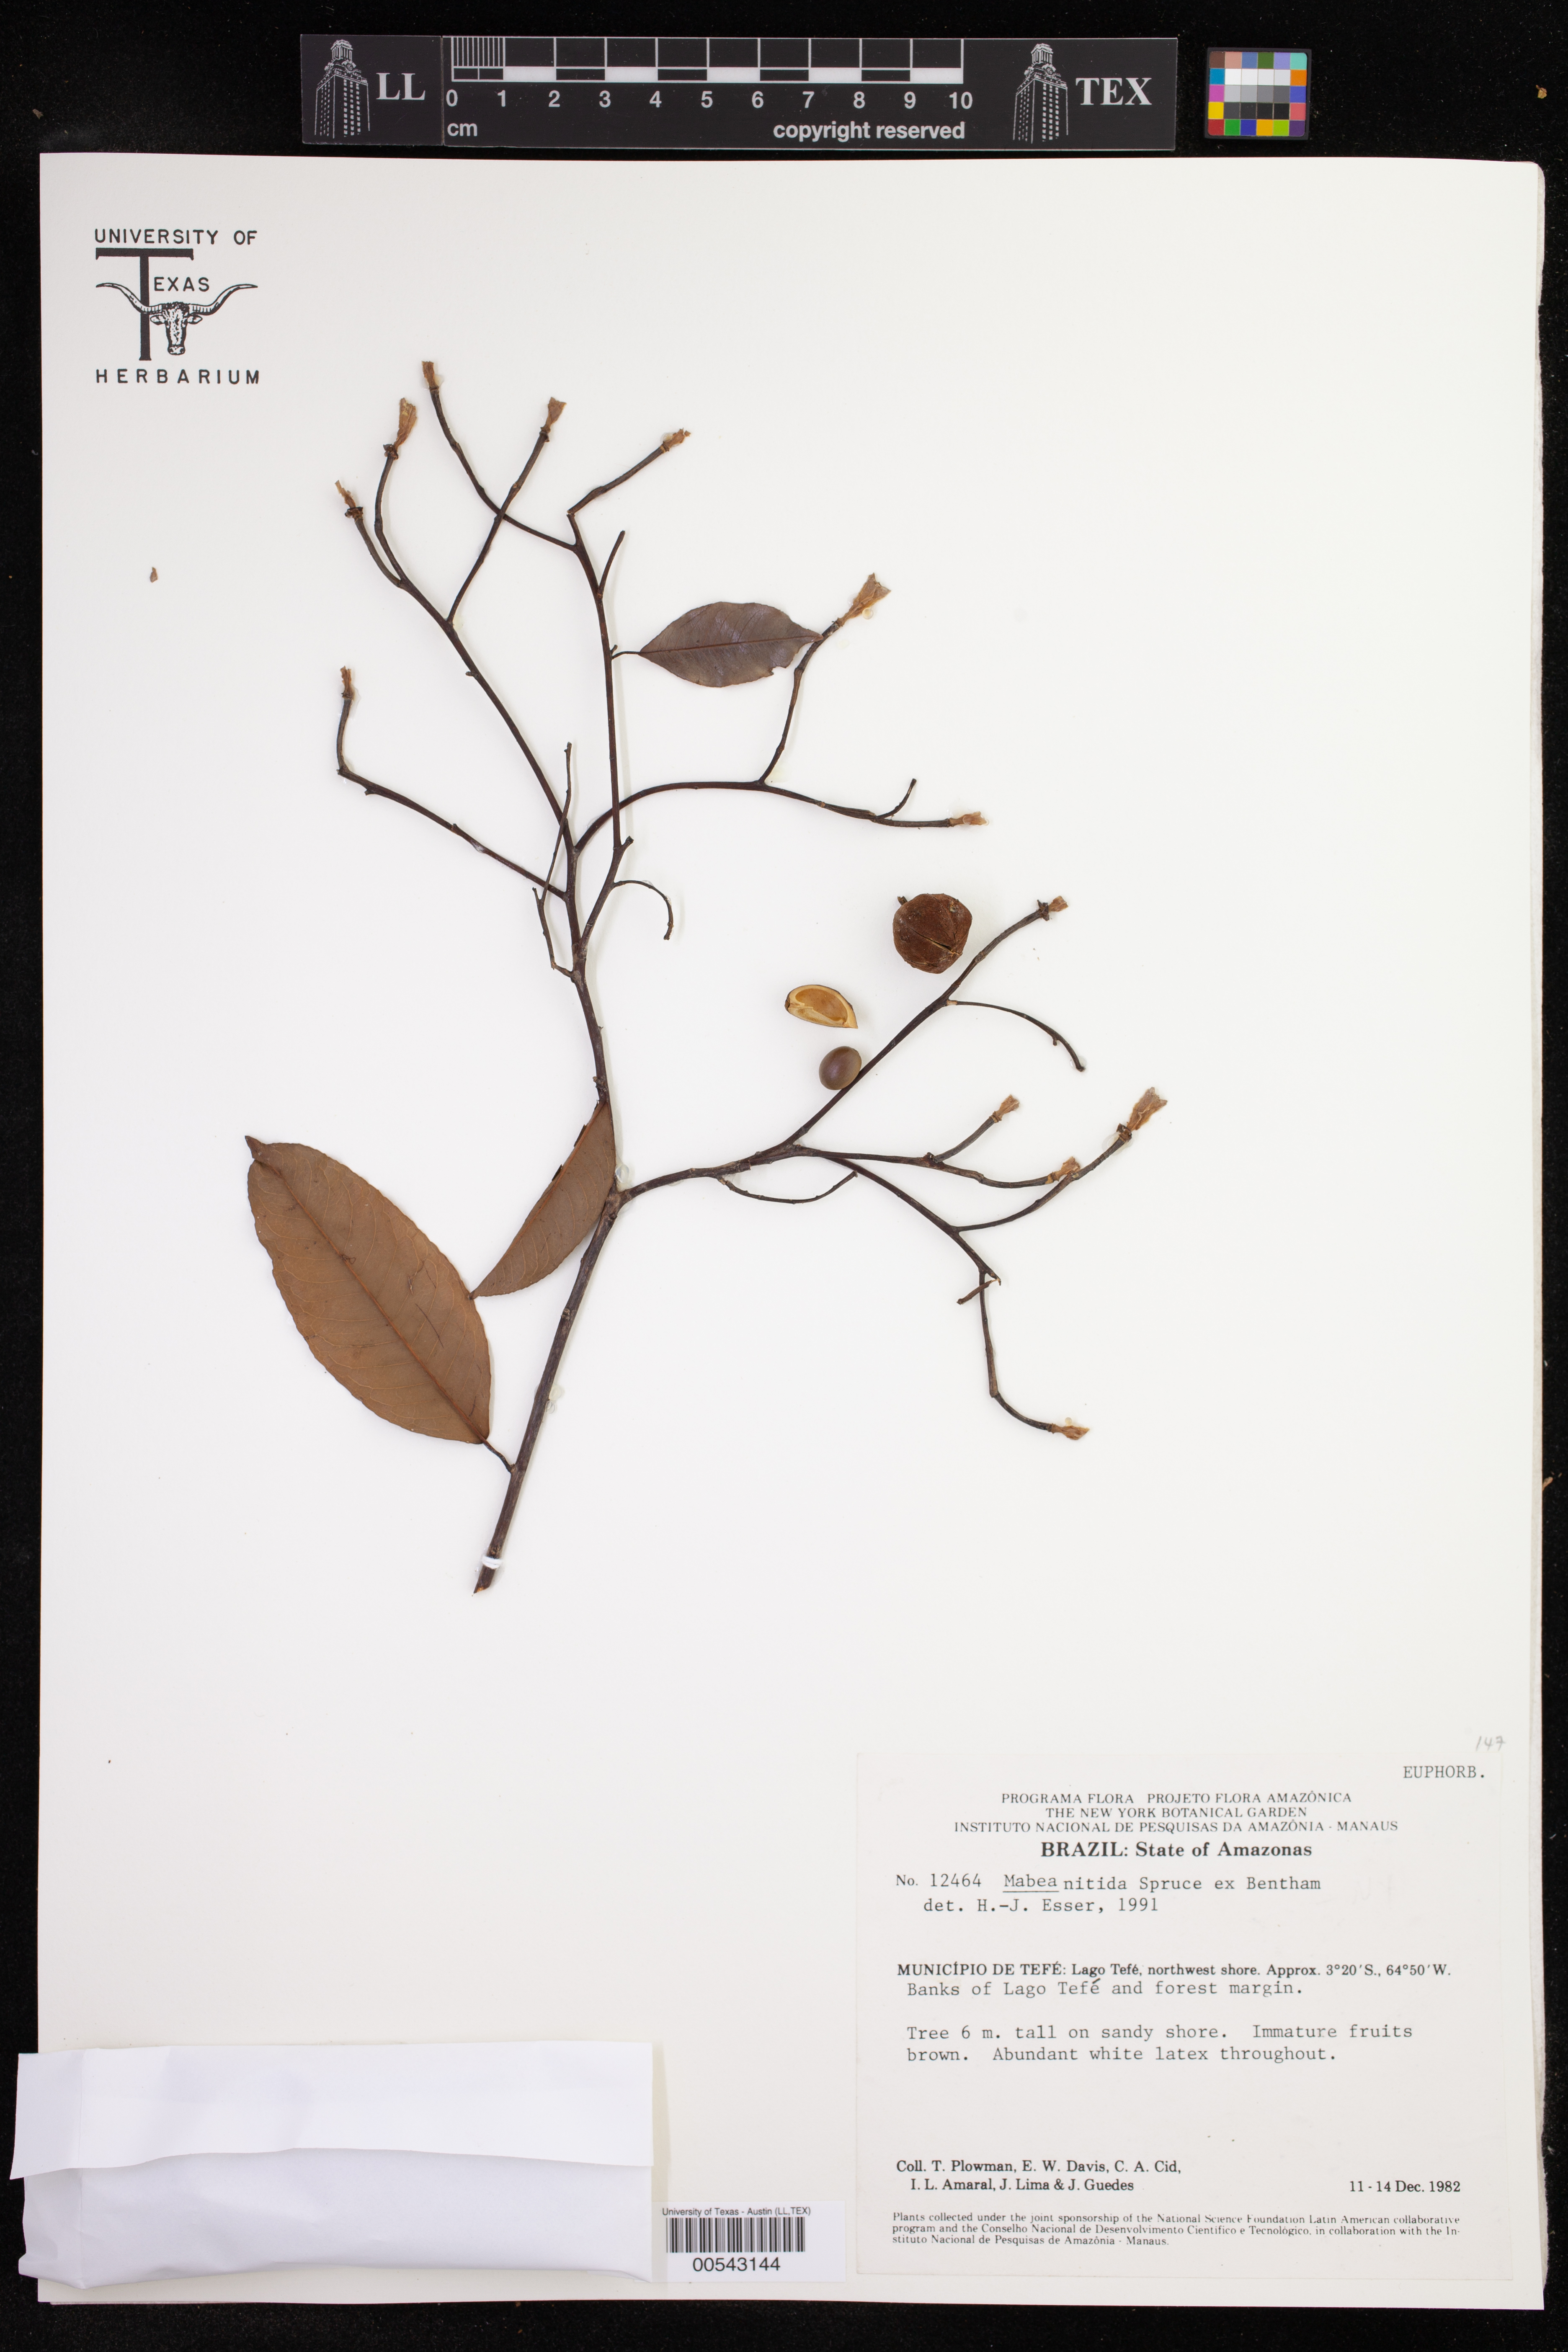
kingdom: Plantae
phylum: Tracheophyta
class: Magnoliopsida
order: Malpighiales
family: Euphorbiaceae
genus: Mabea
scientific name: Mabea nitida
